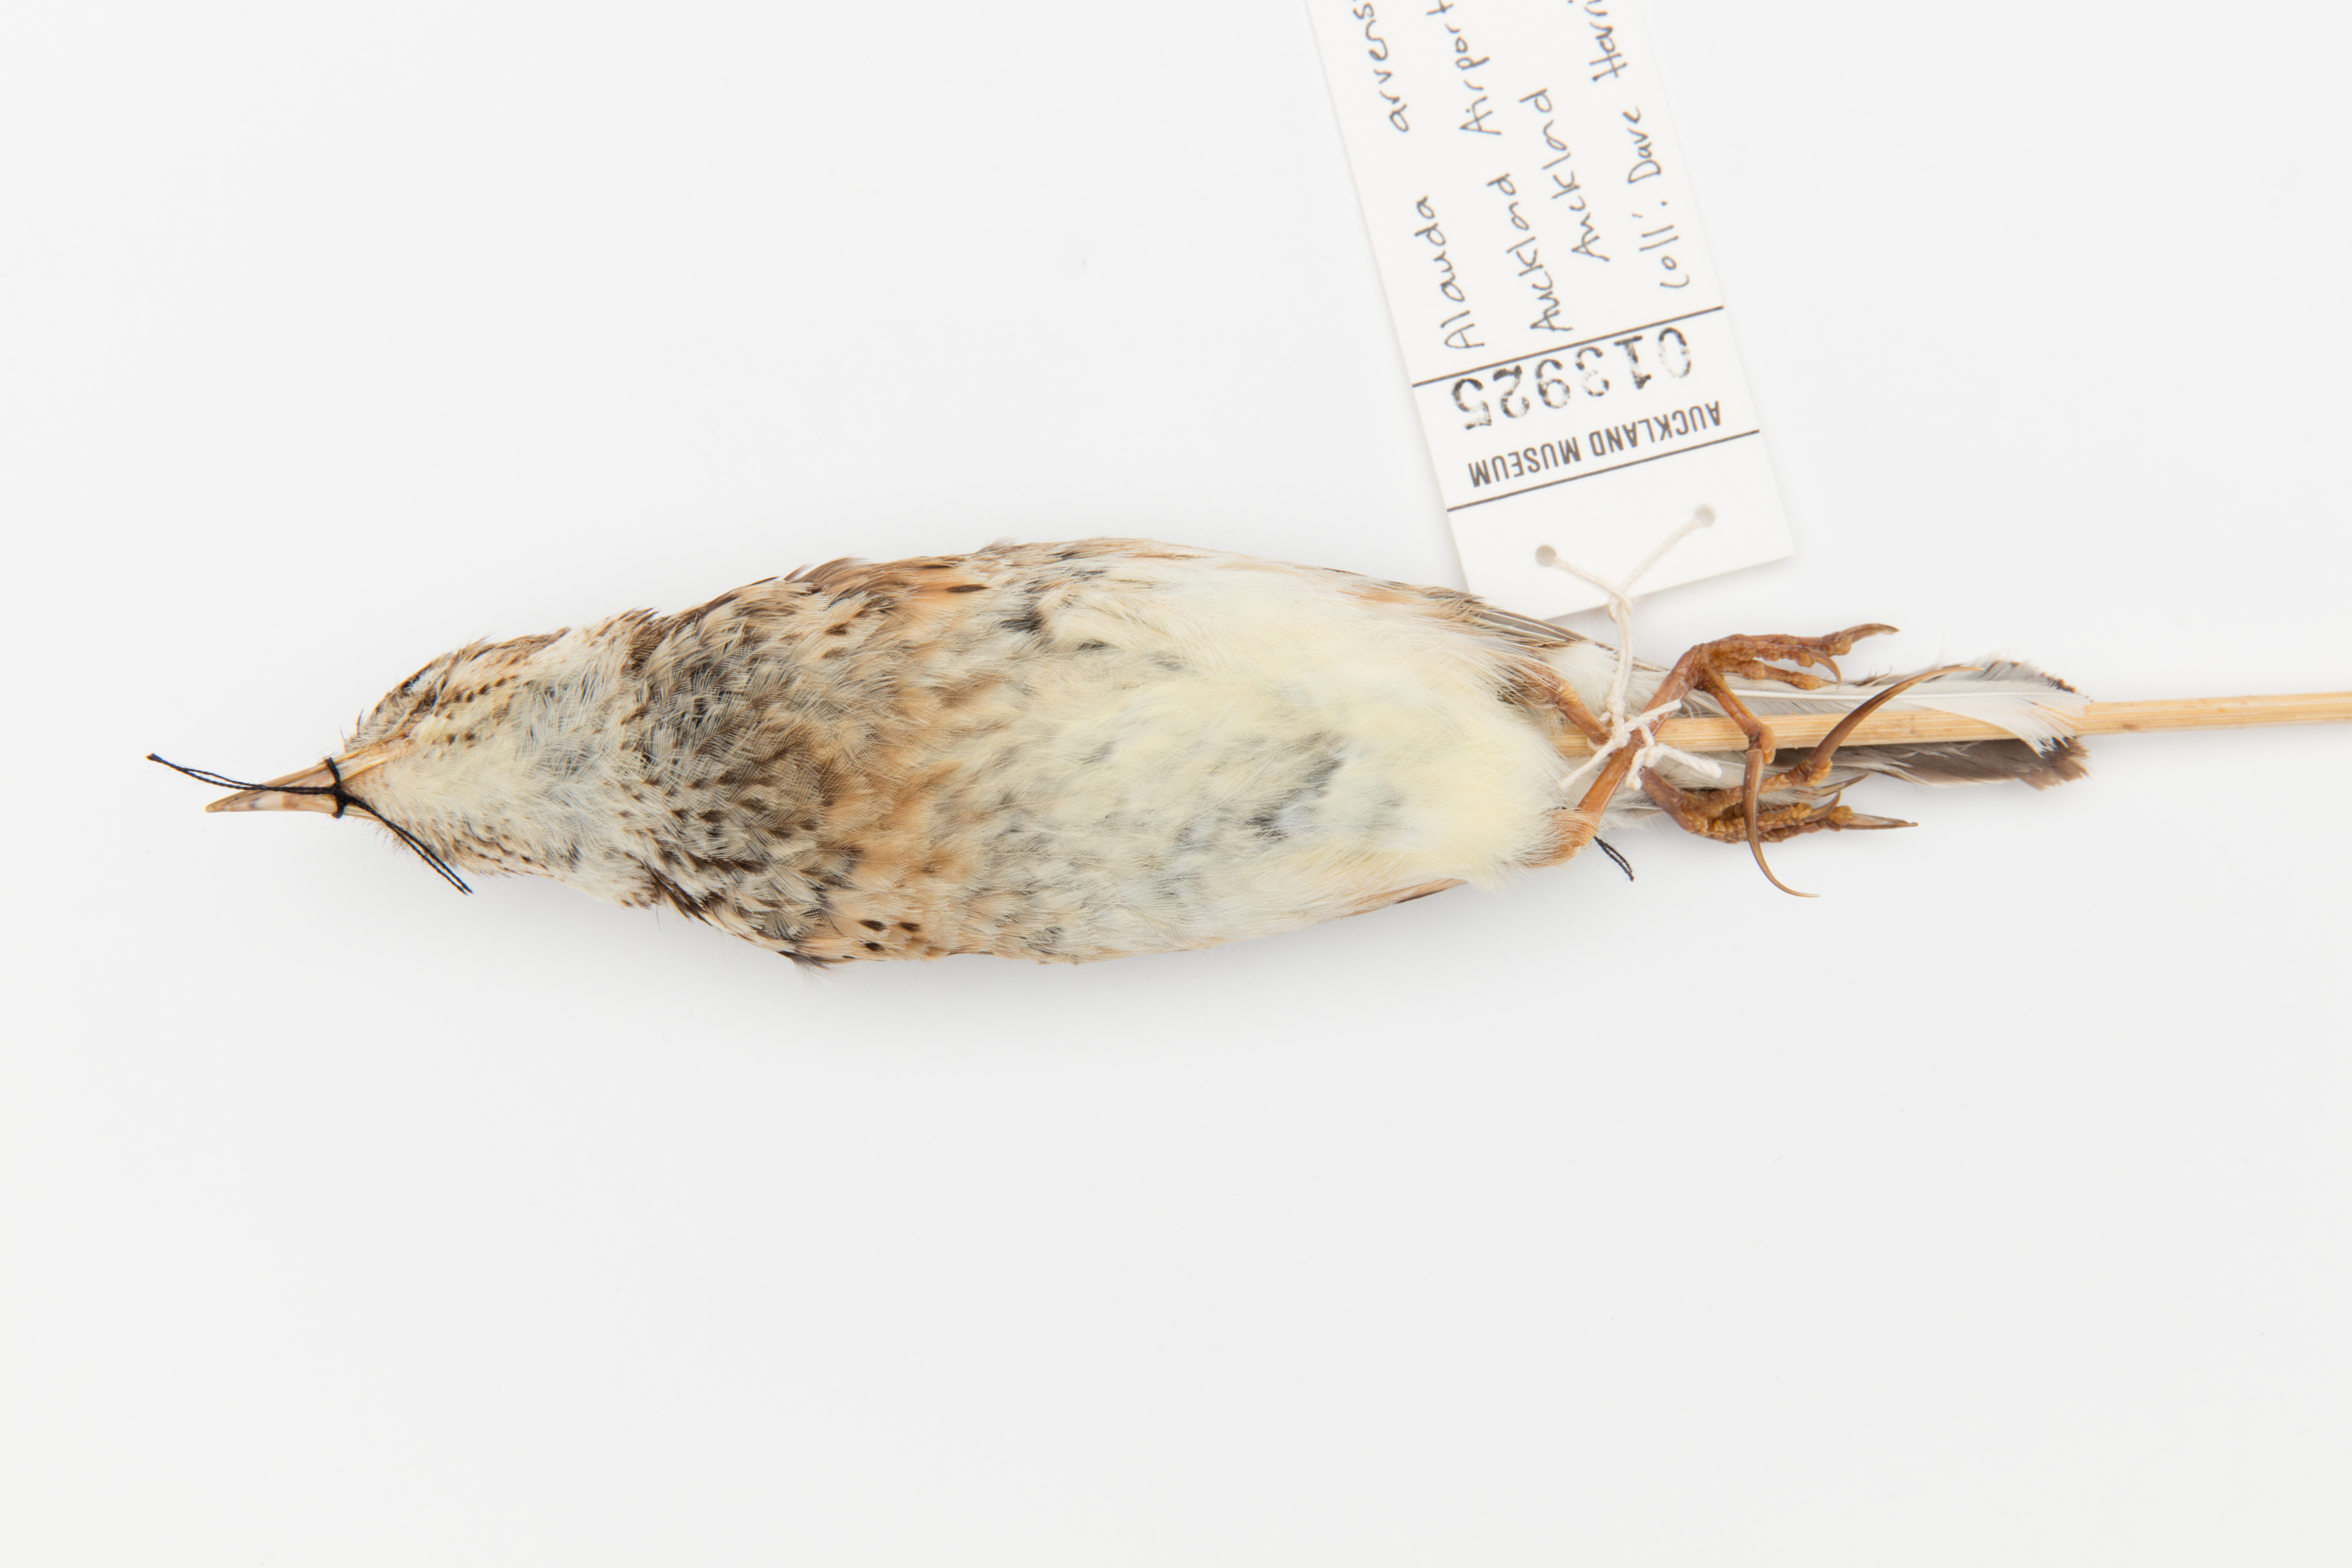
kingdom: Animalia
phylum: Chordata
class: Aves
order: Passeriformes
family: Alaudidae
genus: Alauda
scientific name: Alauda arvensis
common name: Eurasian skylark
